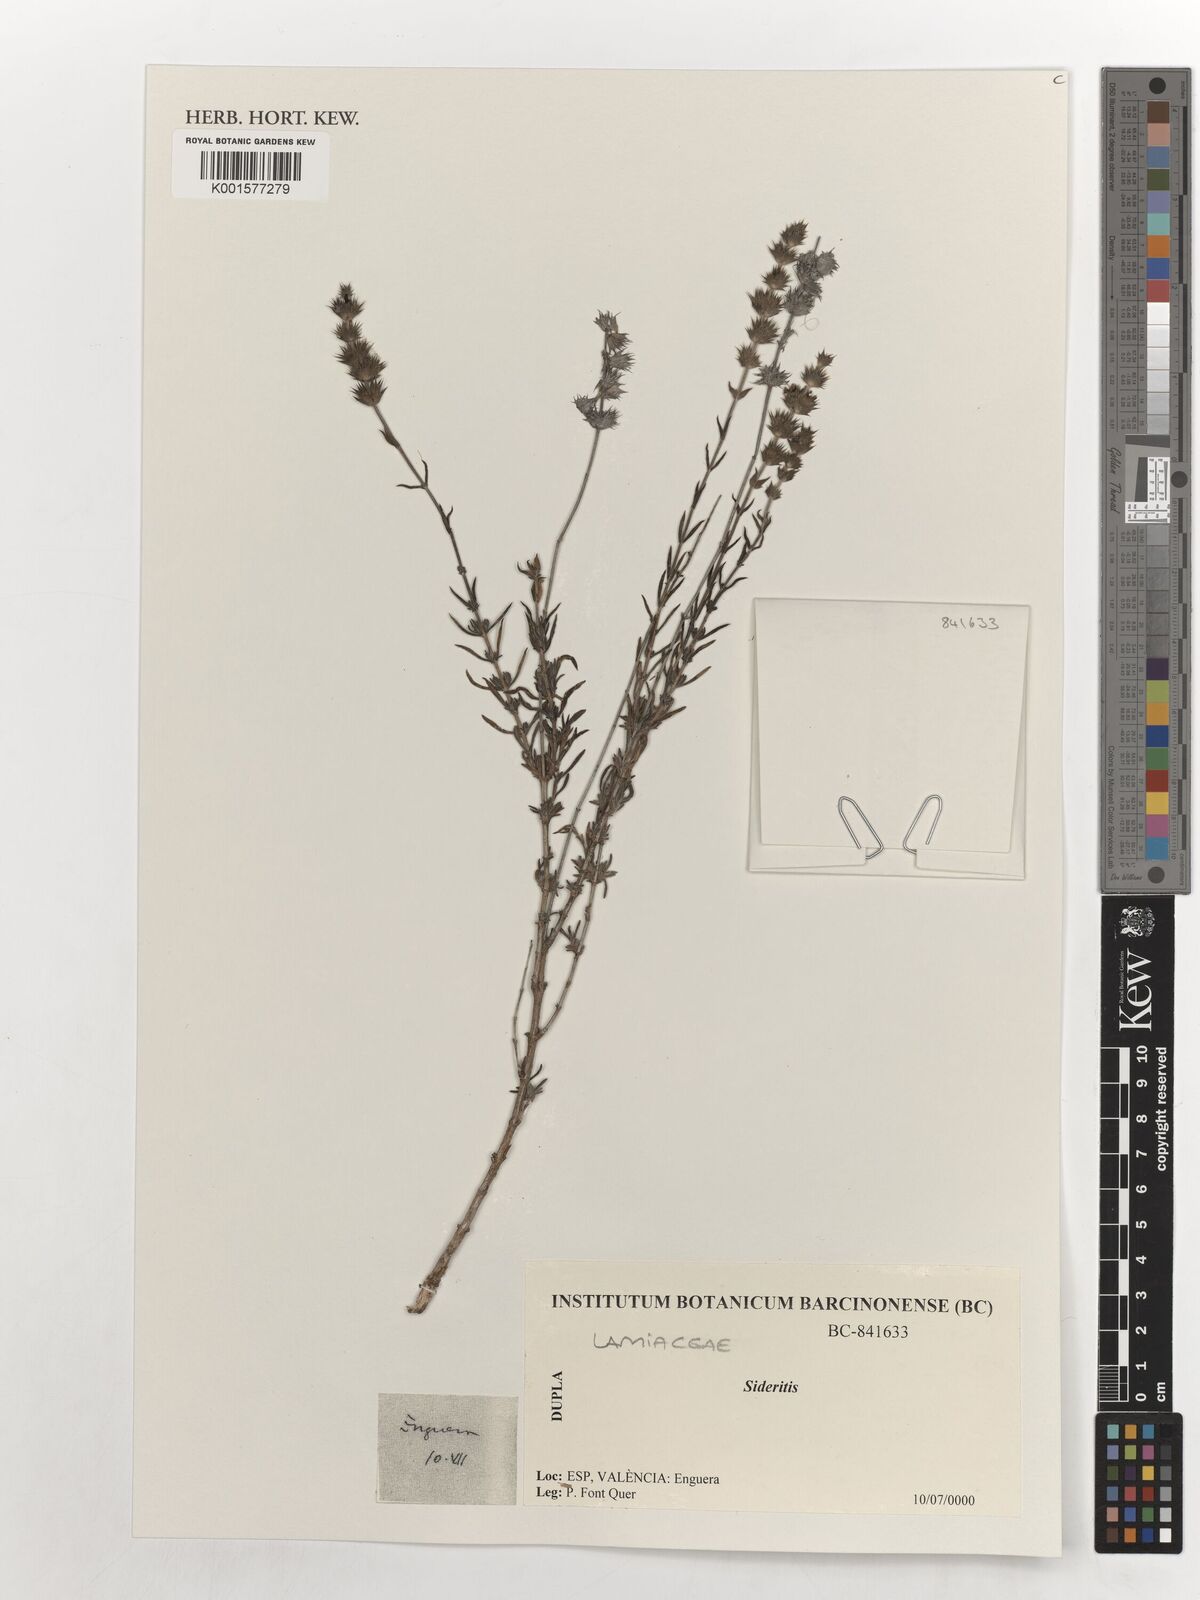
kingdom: Plantae
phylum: Tracheophyta
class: Magnoliopsida
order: Lamiales
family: Lamiaceae
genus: Sideritis
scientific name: Sideritis
